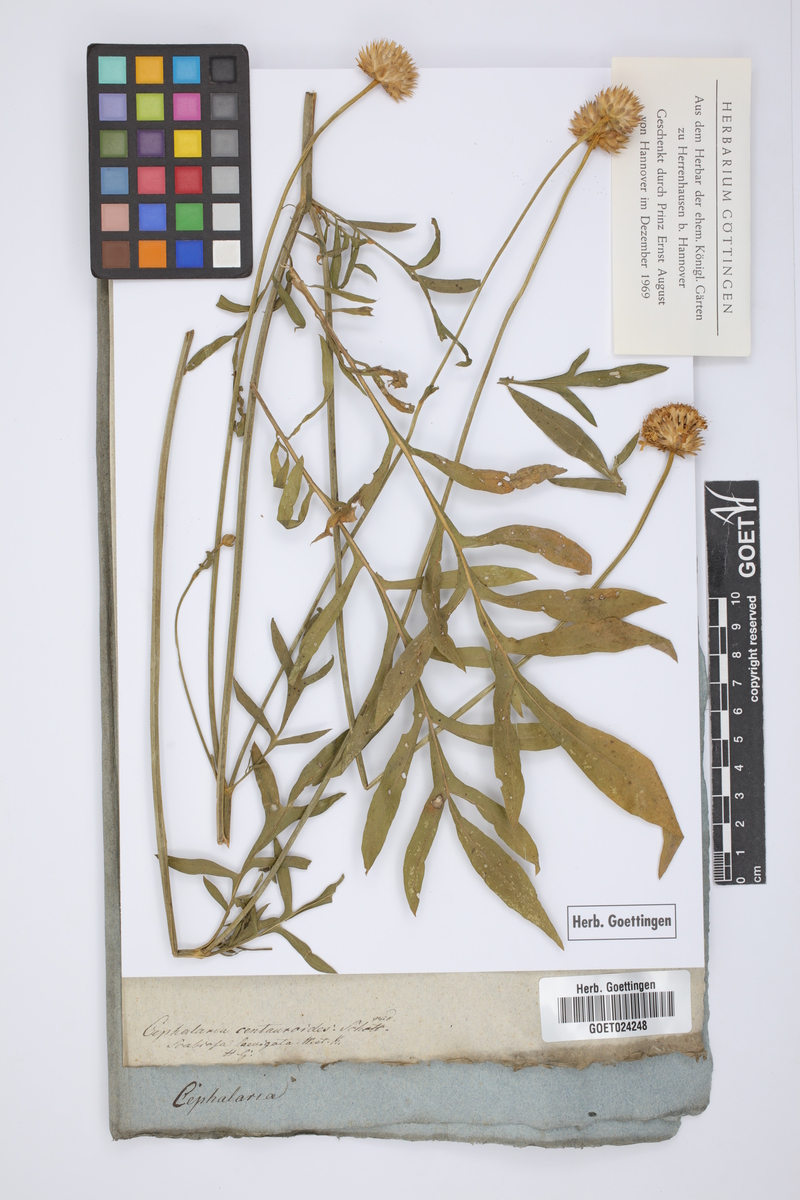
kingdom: Plantae
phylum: Tracheophyta
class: Magnoliopsida
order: Dipsacales
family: Caprifoliaceae
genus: Cephalaria
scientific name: Cephalaria uralensis
